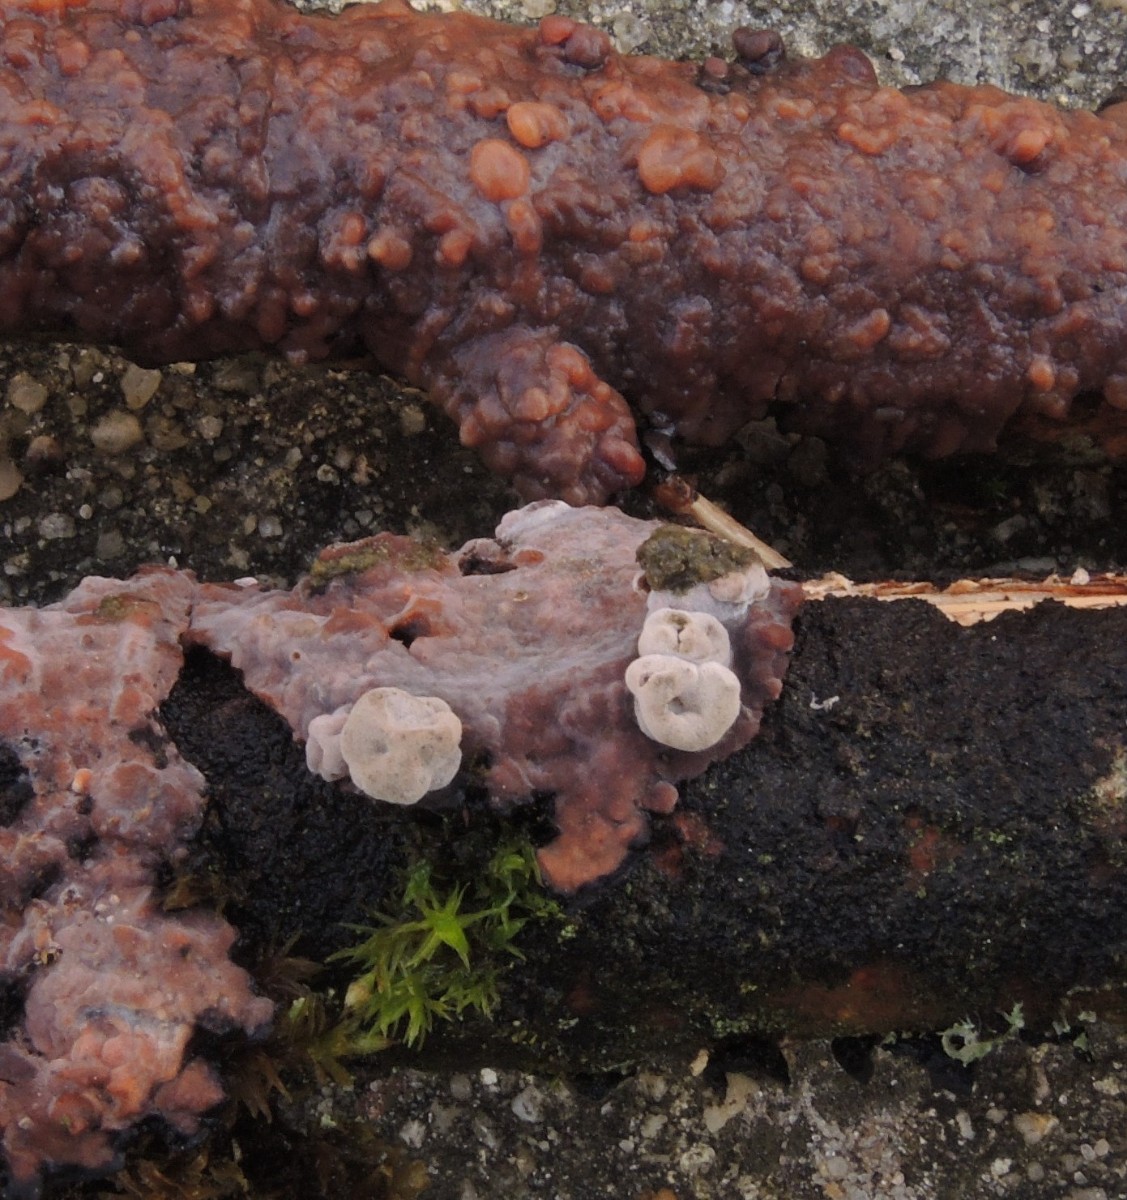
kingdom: Fungi
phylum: Basidiomycota
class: Pucciniomycetes
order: Platygloeales
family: Platygloeaceae
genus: Platygloea
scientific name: Platygloea
